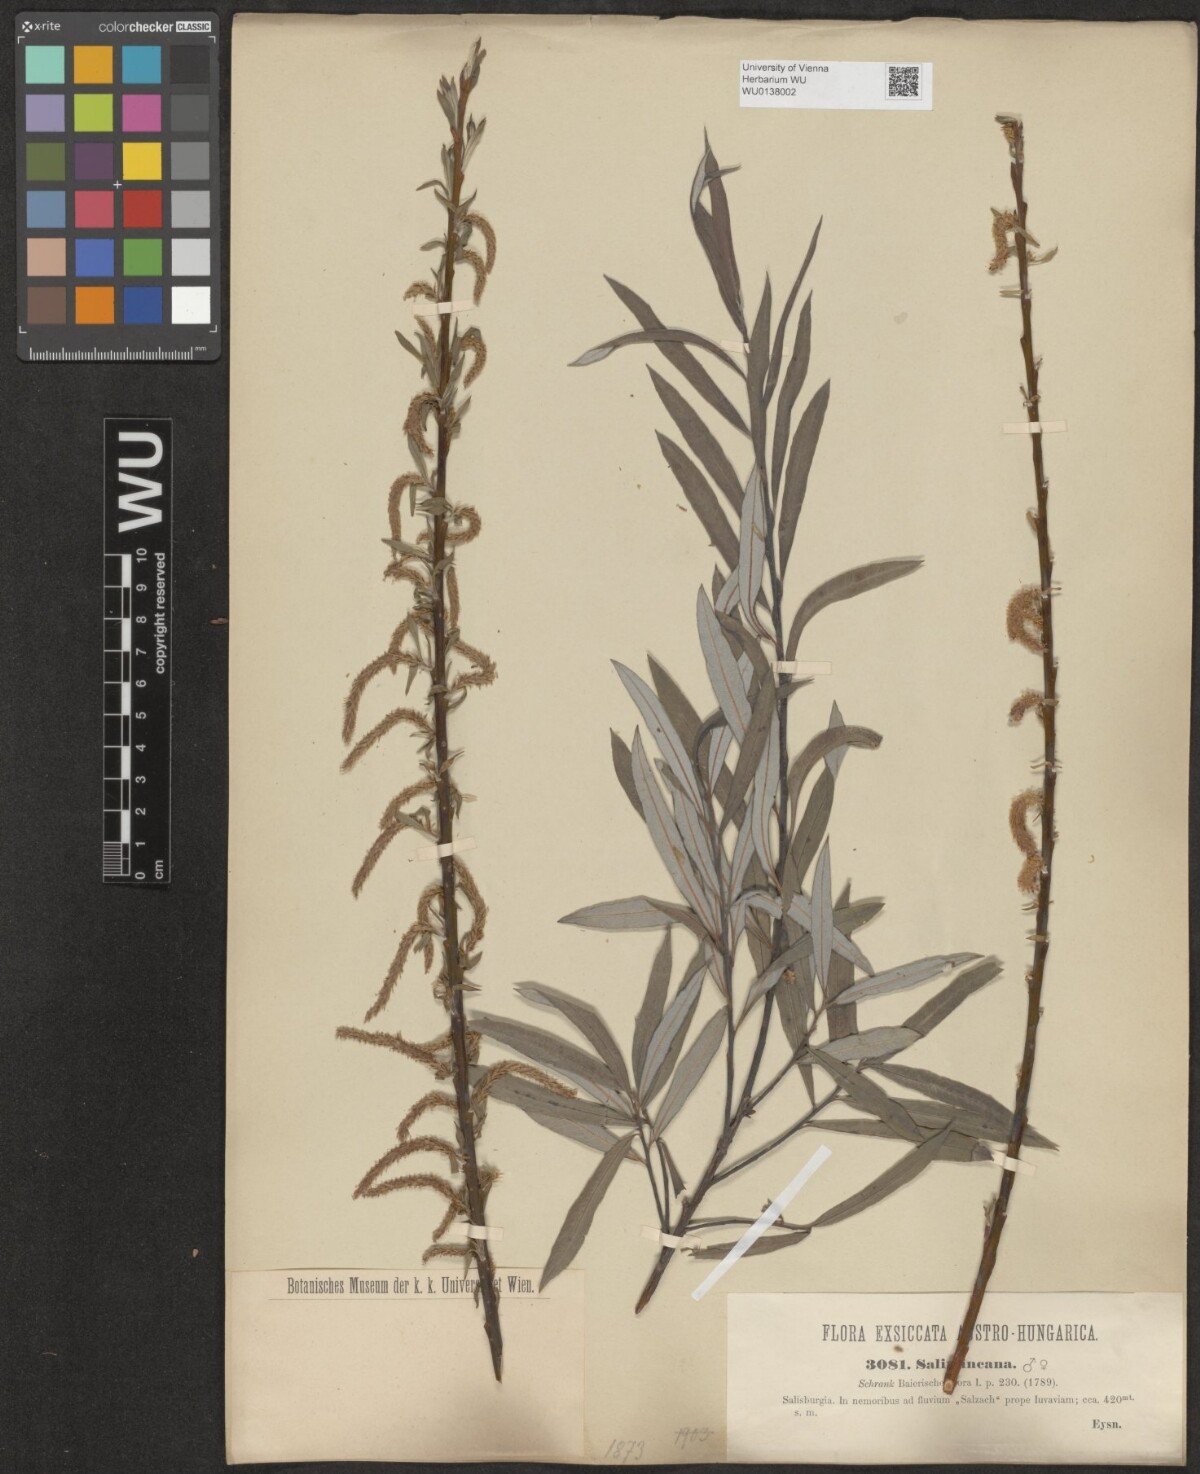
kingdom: Plantae
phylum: Tracheophyta
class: Magnoliopsida
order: Malpighiales
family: Salicaceae
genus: Salix
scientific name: Salix eleagnos
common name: Elaeagnus willow
